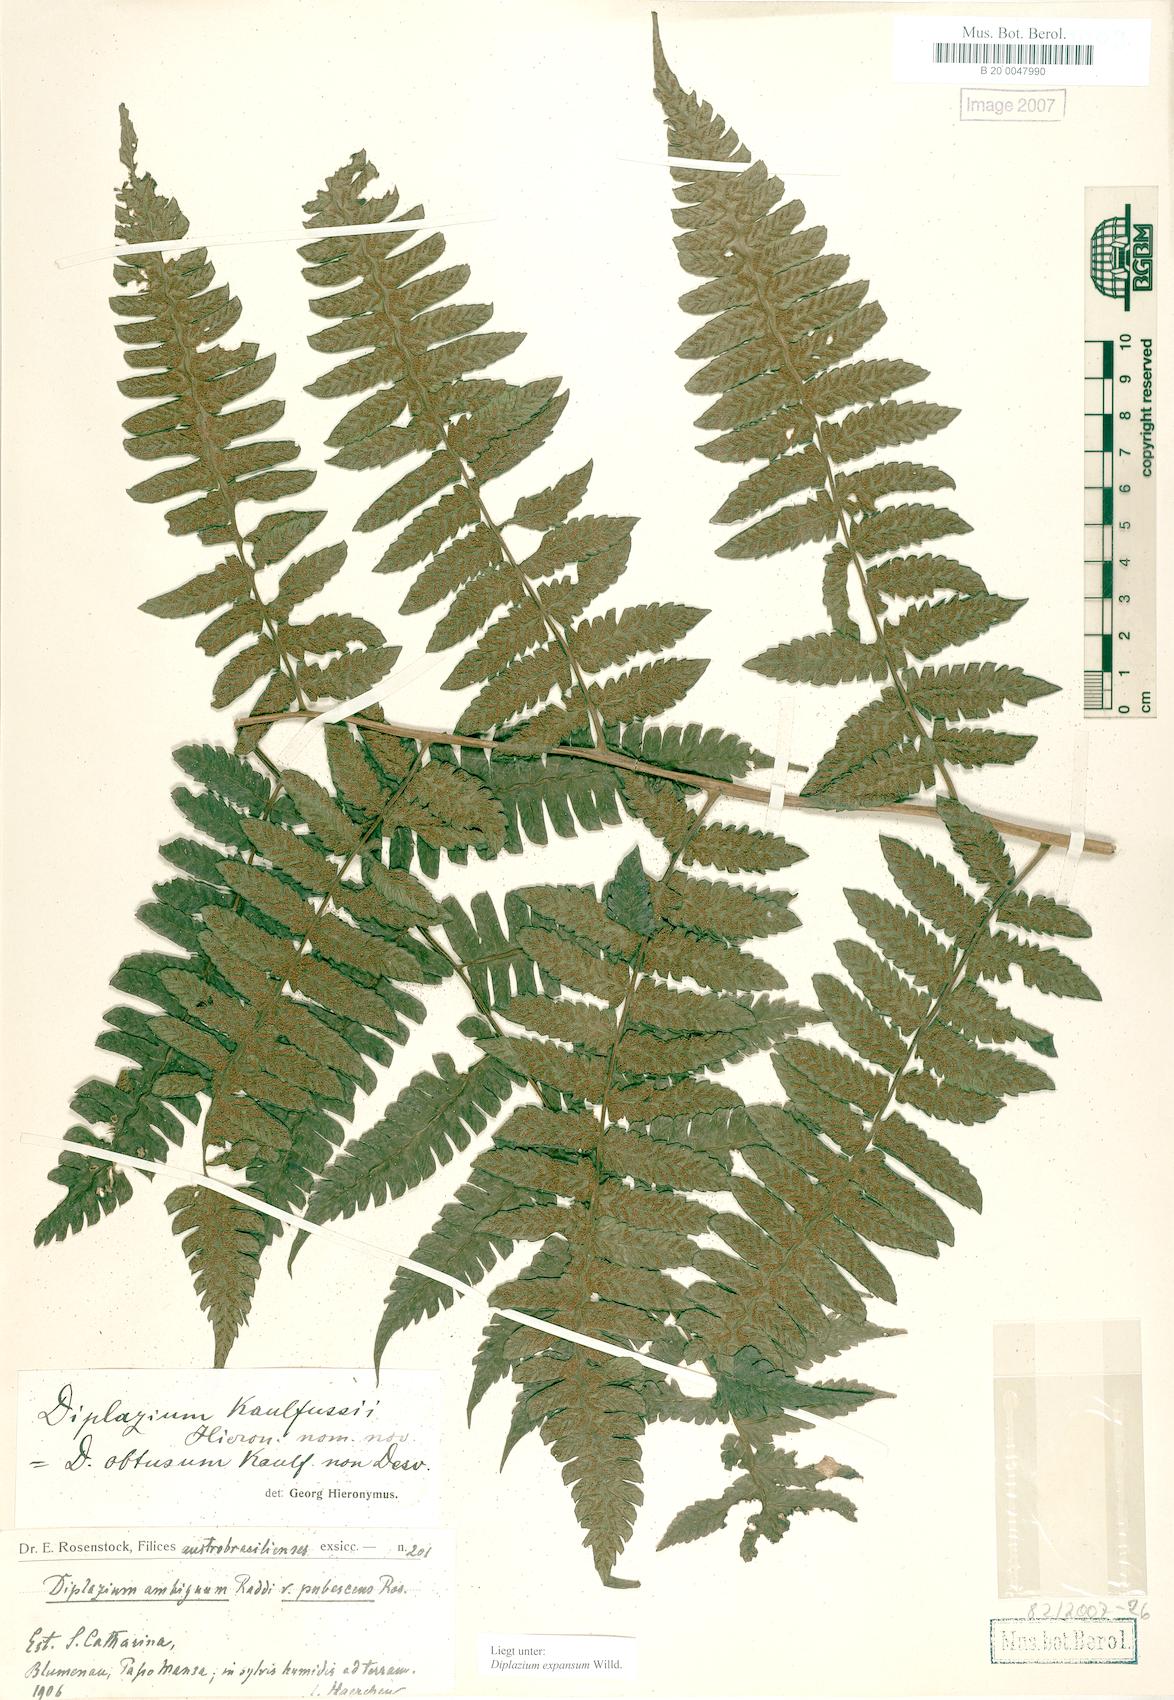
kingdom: Plantae
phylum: Tracheophyta
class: Polypodiopsida
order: Polypodiales
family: Athyriaceae
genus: Diplazium
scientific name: Diplazium expansum
